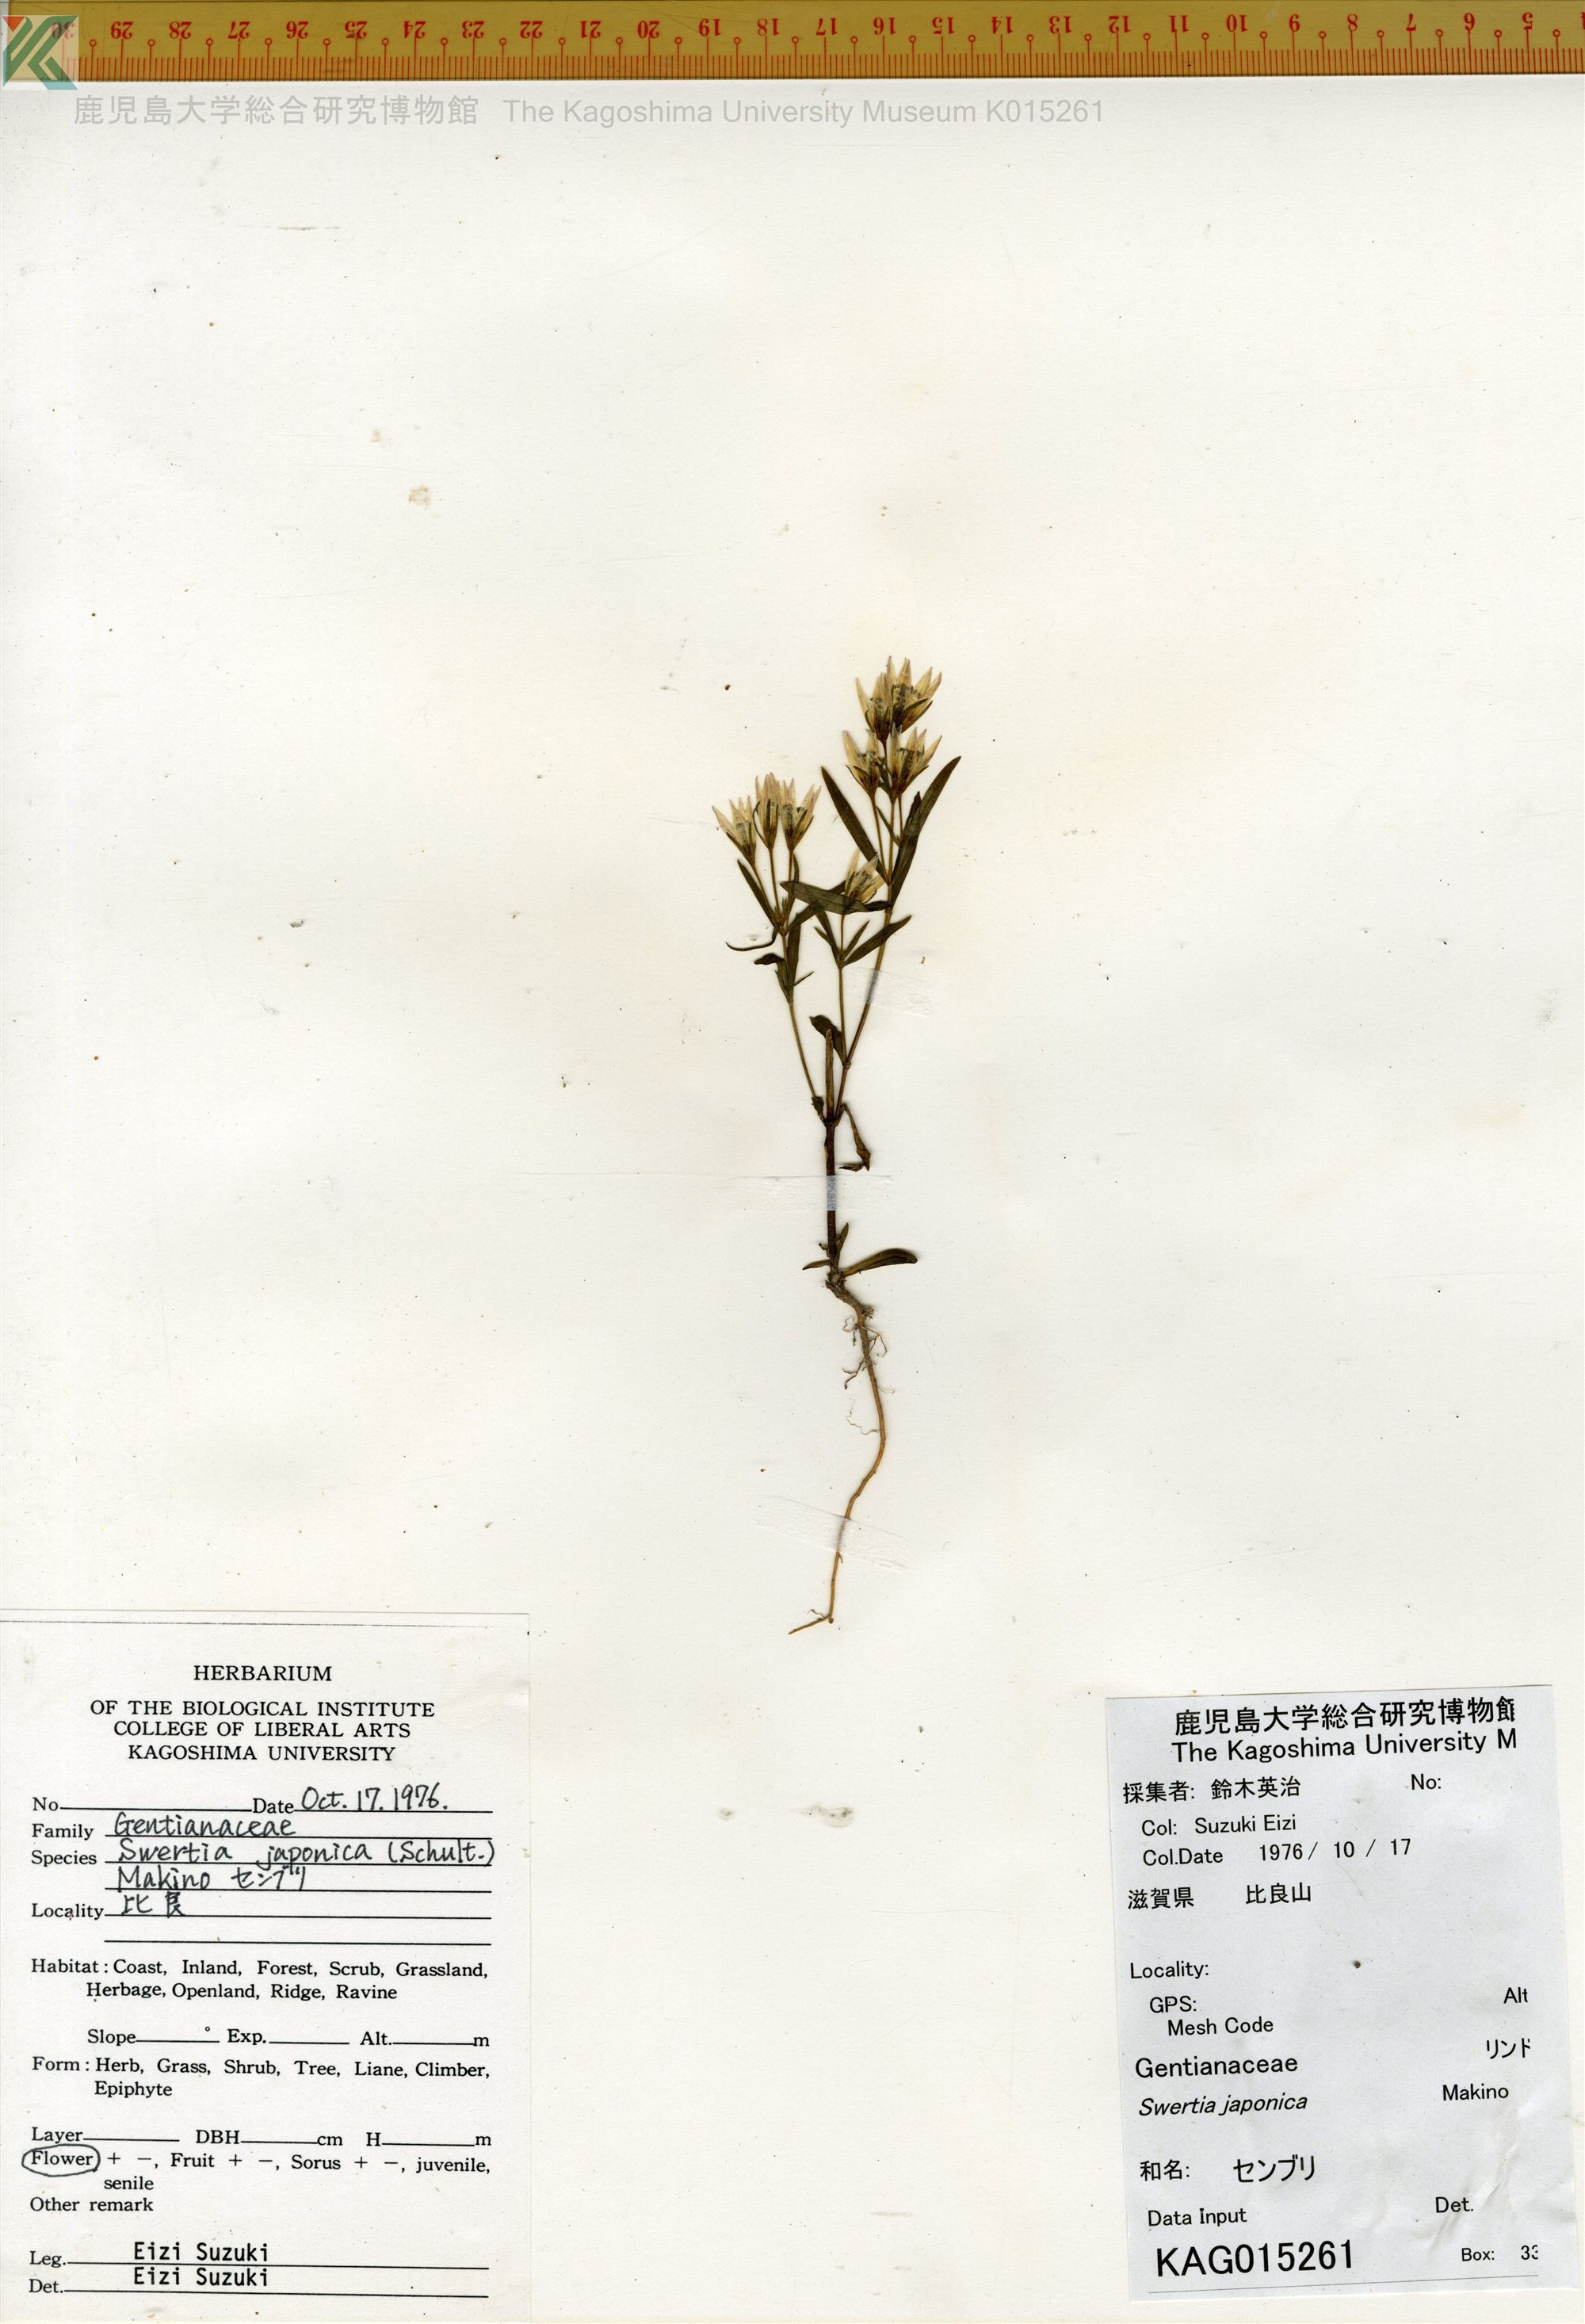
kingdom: Plantae
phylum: Tracheophyta
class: Magnoliopsida
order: Gentianales
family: Gentianaceae
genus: Swertia
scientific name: Swertia japonica
